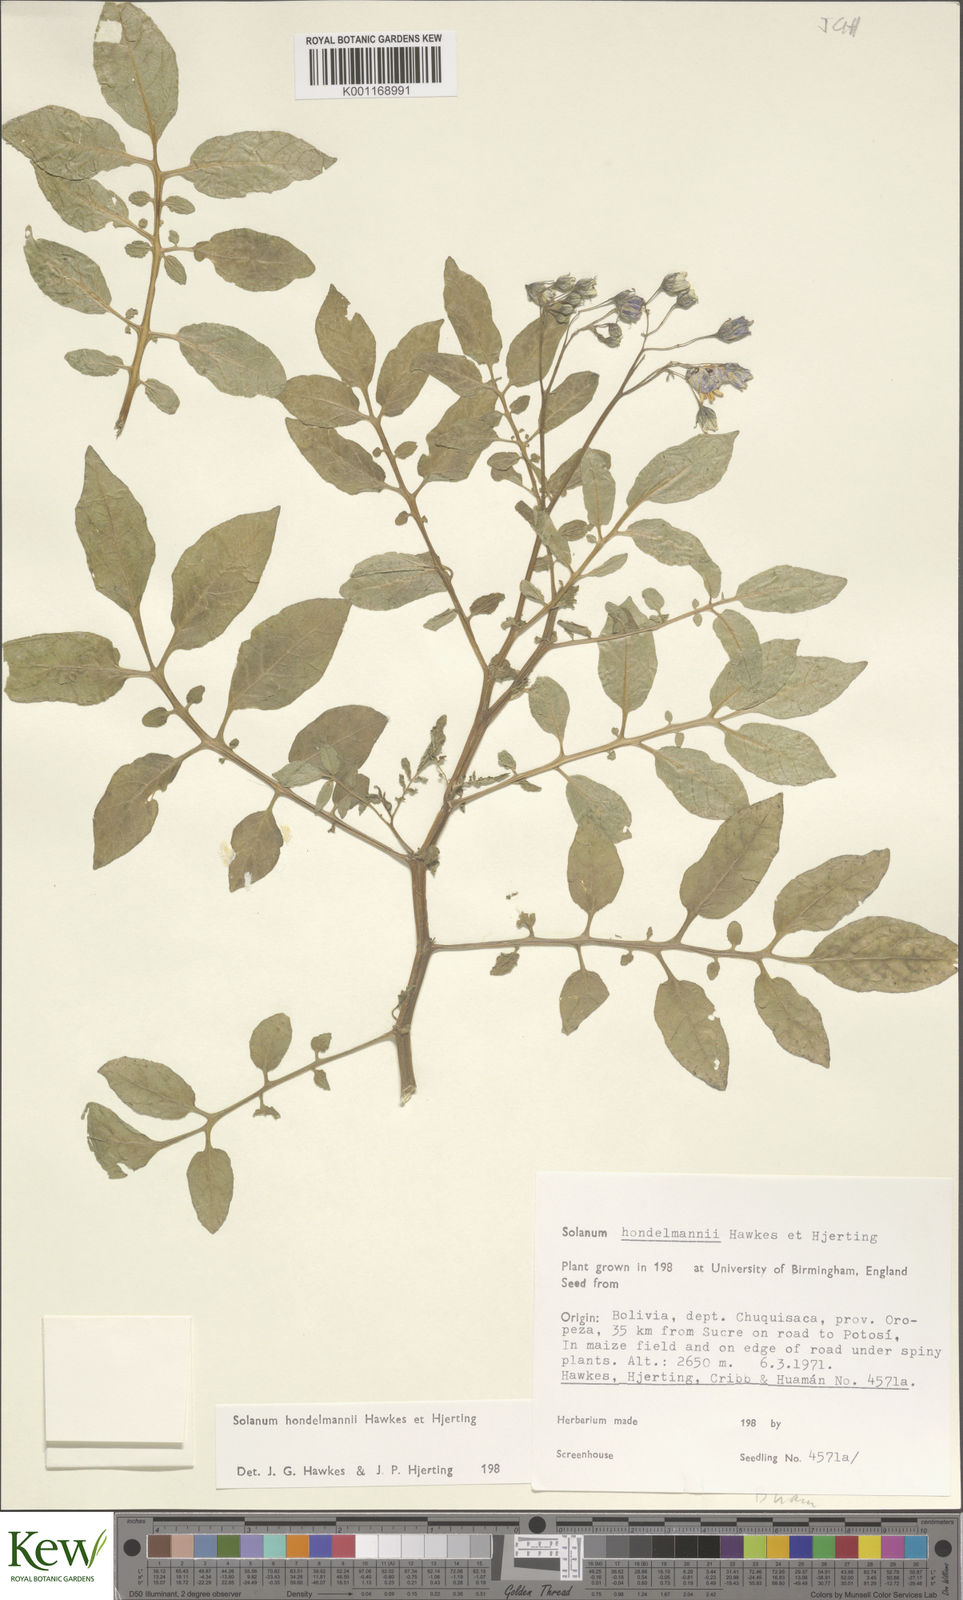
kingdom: Plantae
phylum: Tracheophyta
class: Magnoliopsida
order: Solanales
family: Solanaceae
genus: Solanum
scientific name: Solanum brevicaule
